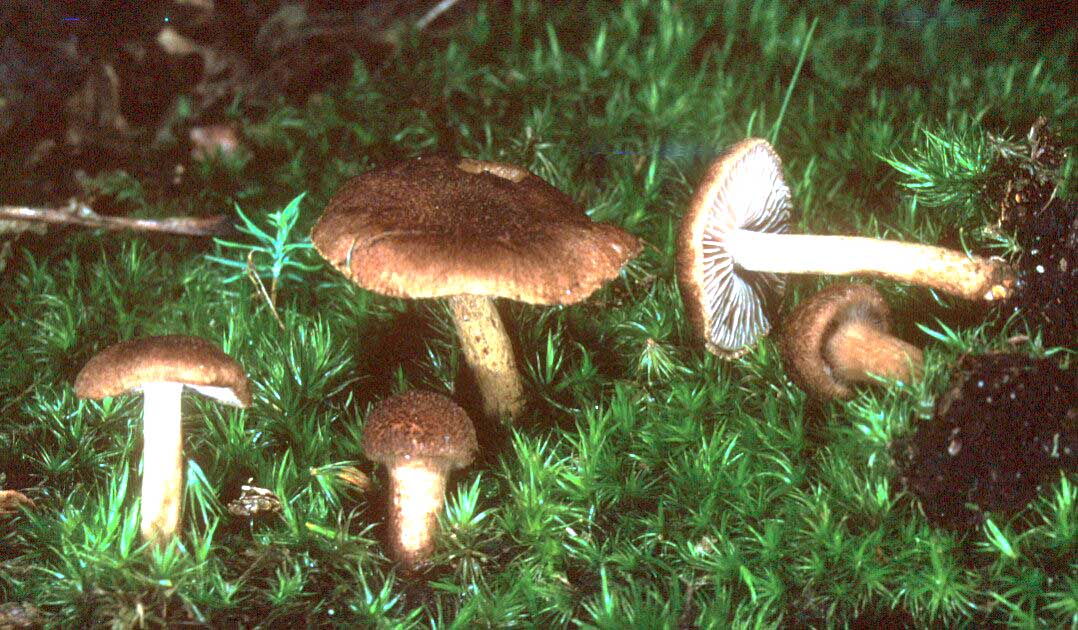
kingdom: Fungi
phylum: Basidiomycota
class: Agaricomycetes
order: Agaricales
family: Inocybaceae
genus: Inocybe
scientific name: Inocybe lanuginosa
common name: uldskællet trævlhat
